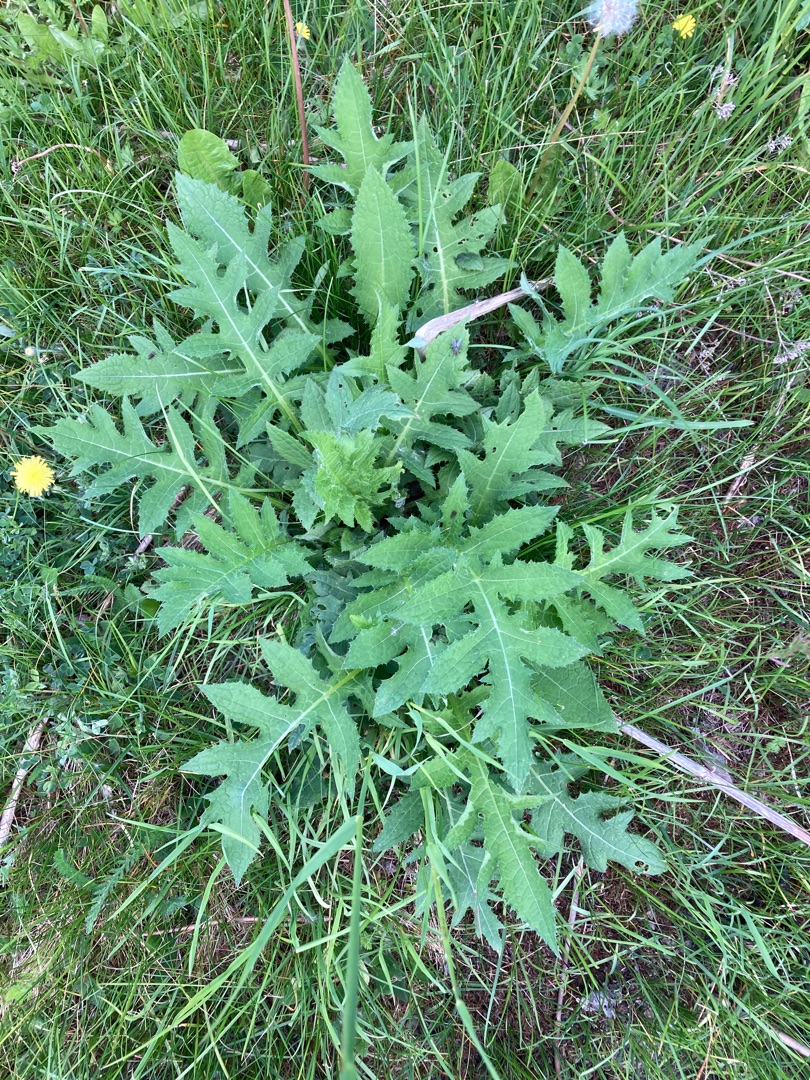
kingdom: Plantae
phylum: Tracheophyta
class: Magnoliopsida
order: Asterales
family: Asteraceae
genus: Cirsium
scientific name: Cirsium oleraceum
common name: Kål-tidsel
